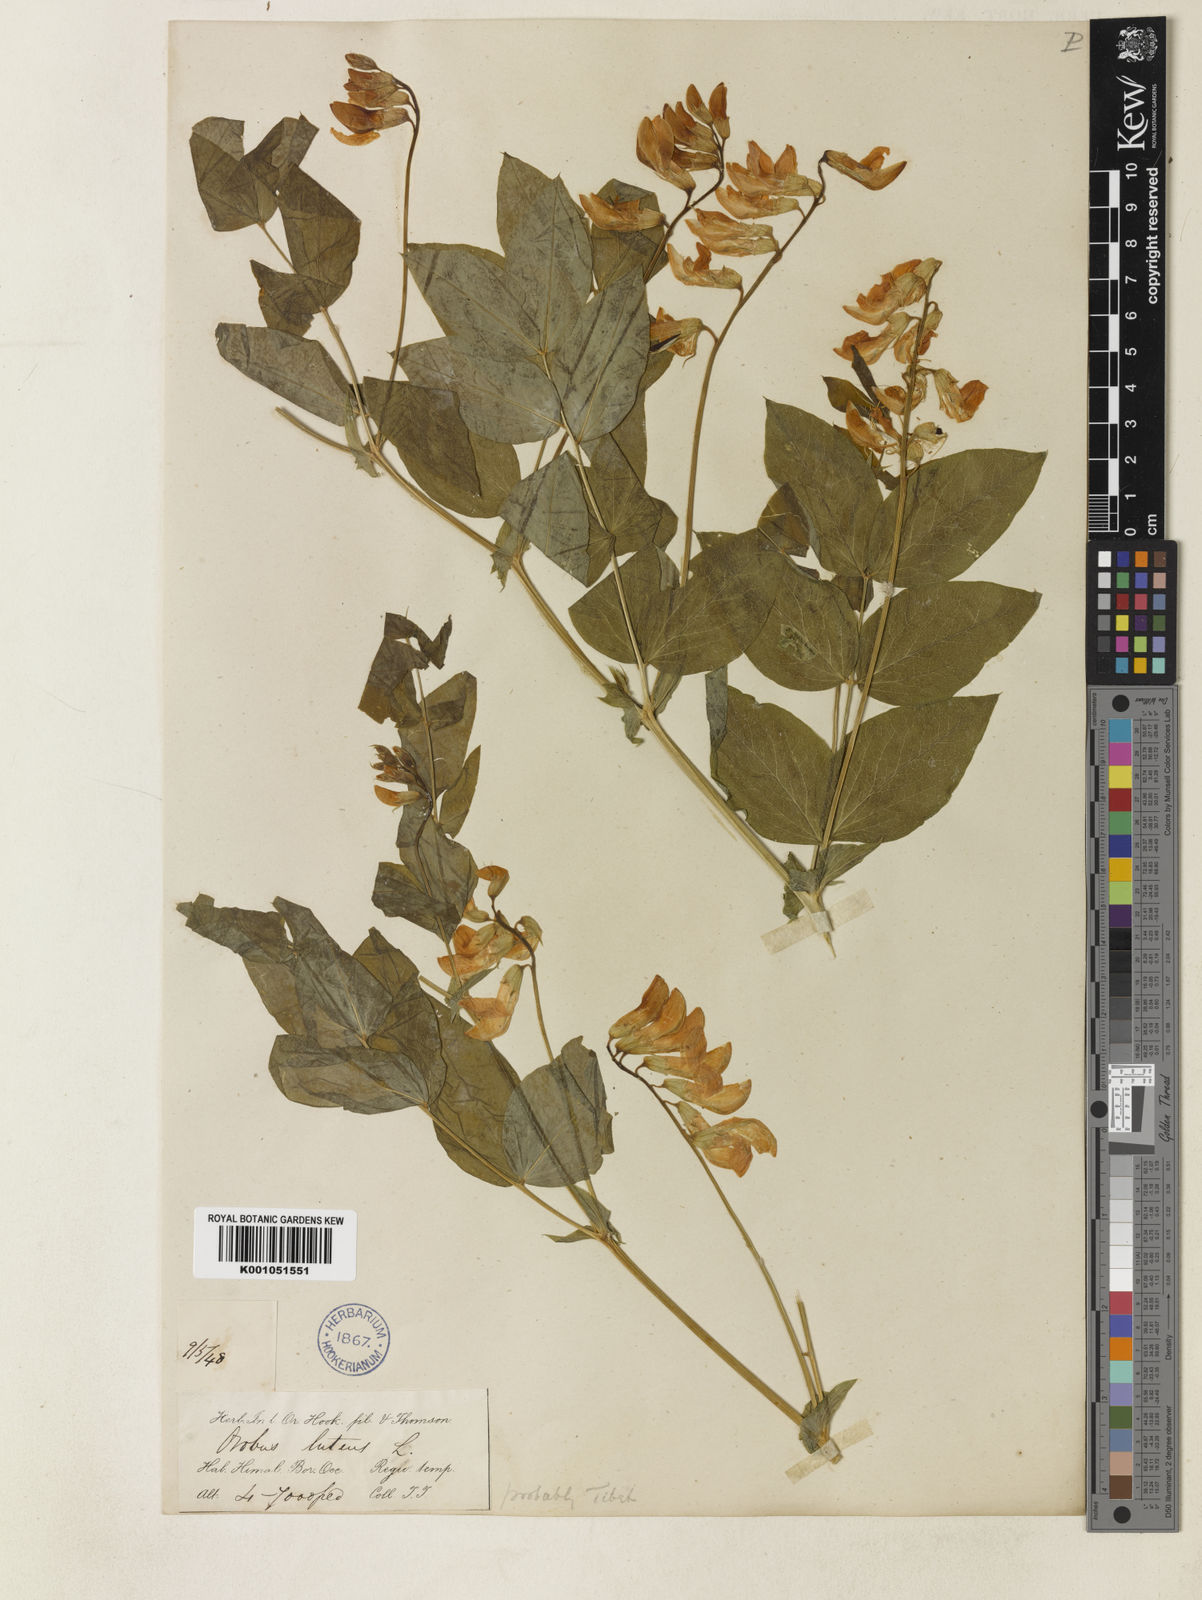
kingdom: Plantae
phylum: Tracheophyta
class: Magnoliopsida
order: Fabales
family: Fabaceae
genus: Lathyrus
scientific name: Lathyrus
